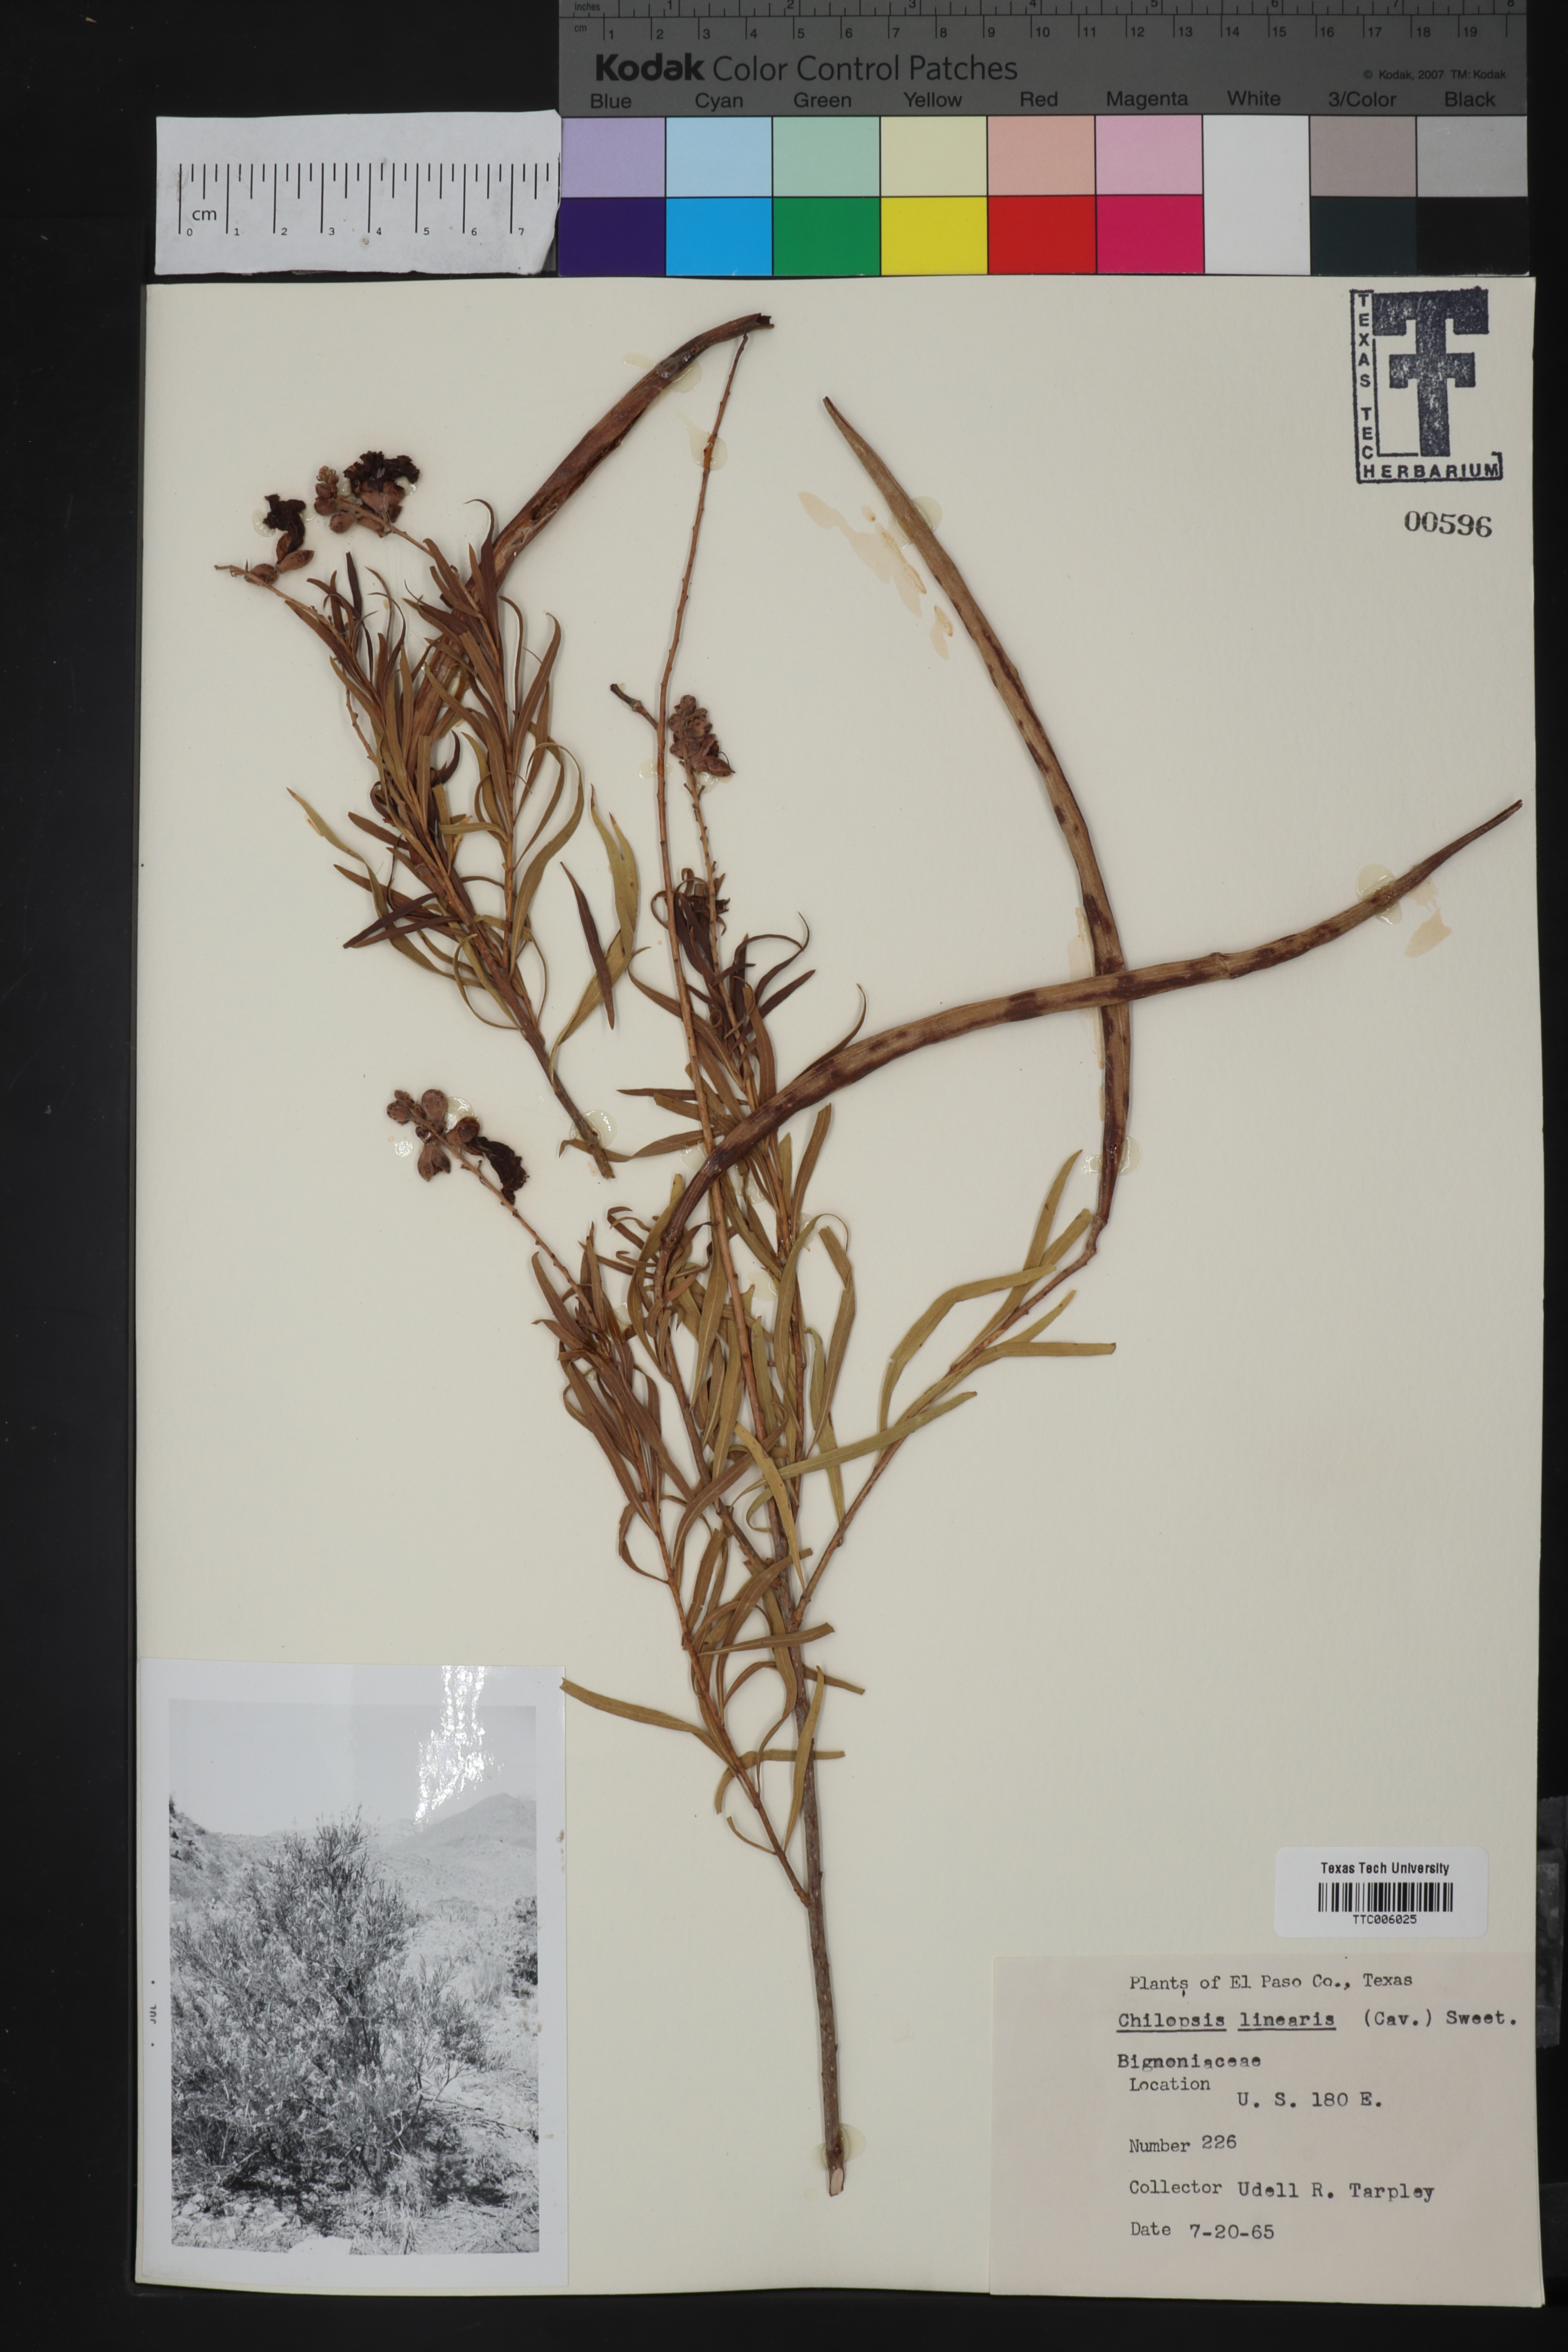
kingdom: Plantae
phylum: Tracheophyta
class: Magnoliopsida
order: Lamiales
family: Bignoniaceae
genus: Chilopsis
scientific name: Chilopsis linearis
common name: Desert-willow
